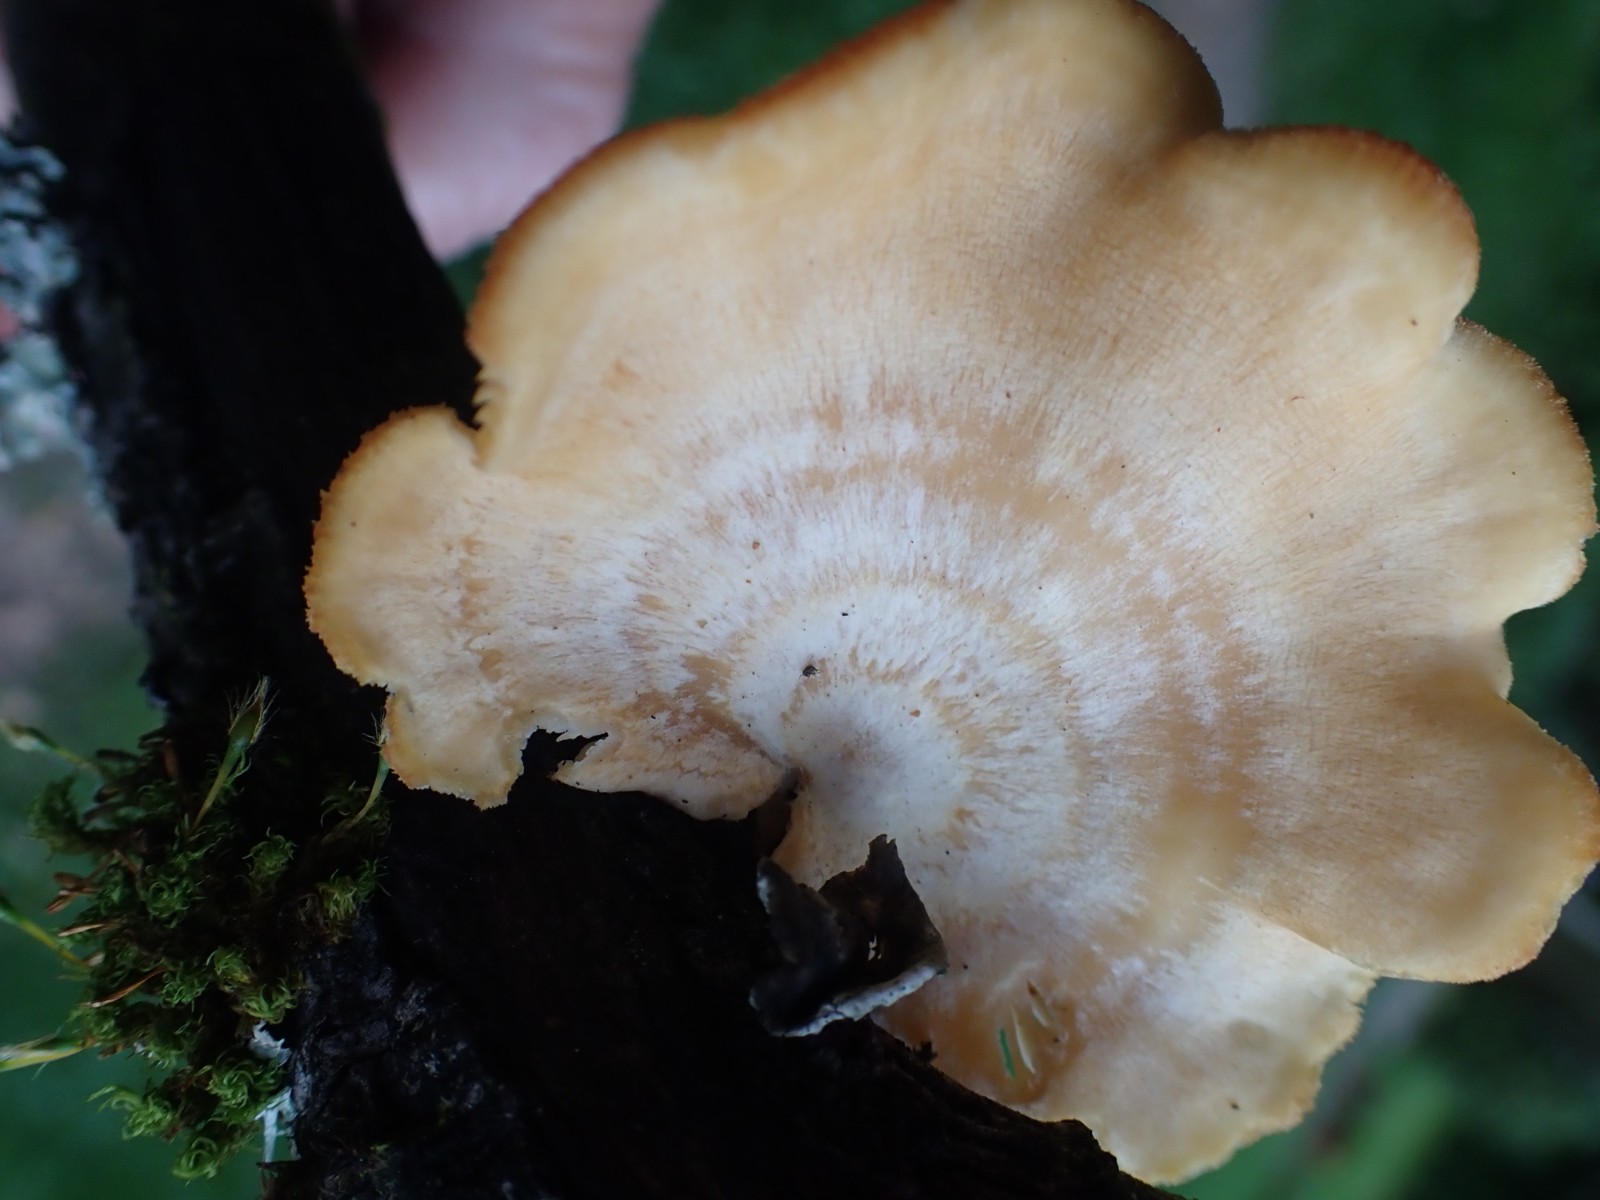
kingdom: Fungi
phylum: Basidiomycota
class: Agaricomycetes
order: Polyporales
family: Polyporaceae
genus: Neofavolus
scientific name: Neofavolus suavissimus
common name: anishat
